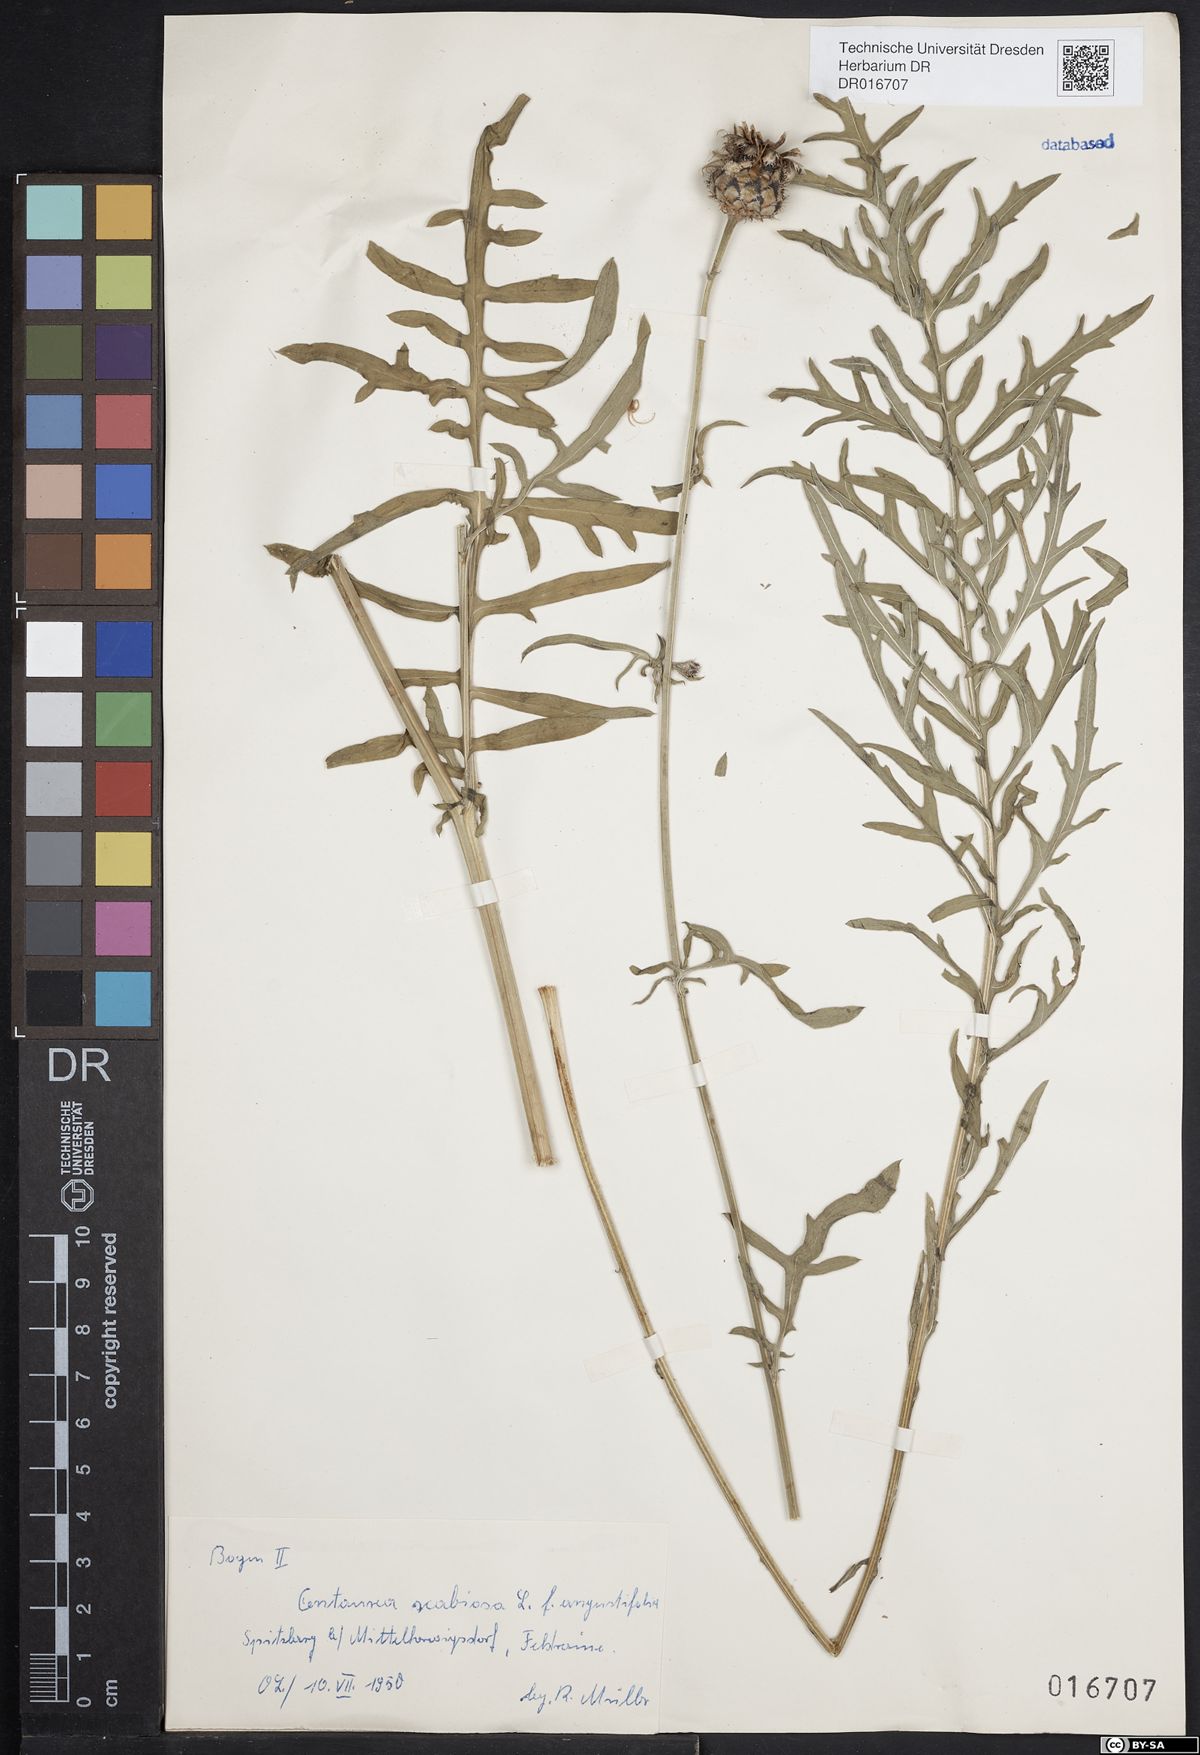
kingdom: Plantae
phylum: Tracheophyta
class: Magnoliopsida
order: Asterales
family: Asteraceae
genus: Centaurea
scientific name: Centaurea scabiosa
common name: Greater knapweed
